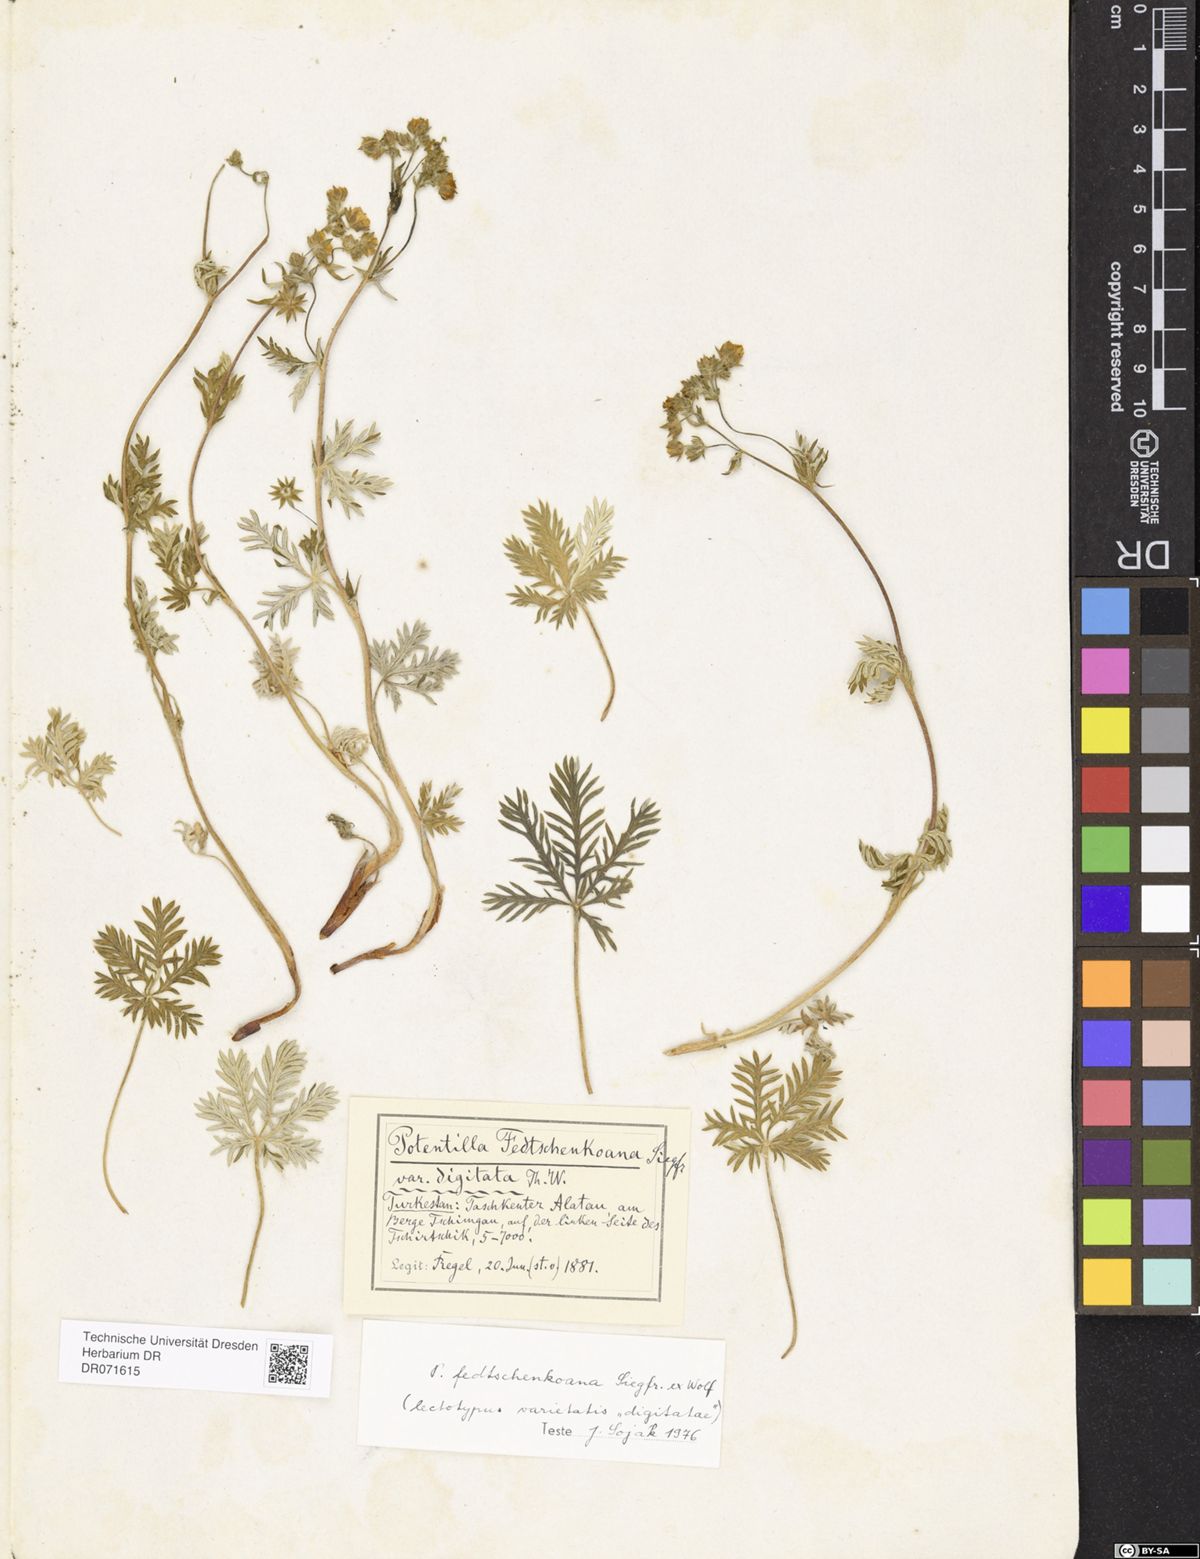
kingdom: Plantae
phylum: Tracheophyta
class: Magnoliopsida
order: Rosales
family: Rosaceae
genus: Potentilla
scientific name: Potentilla fedtschenkoana
